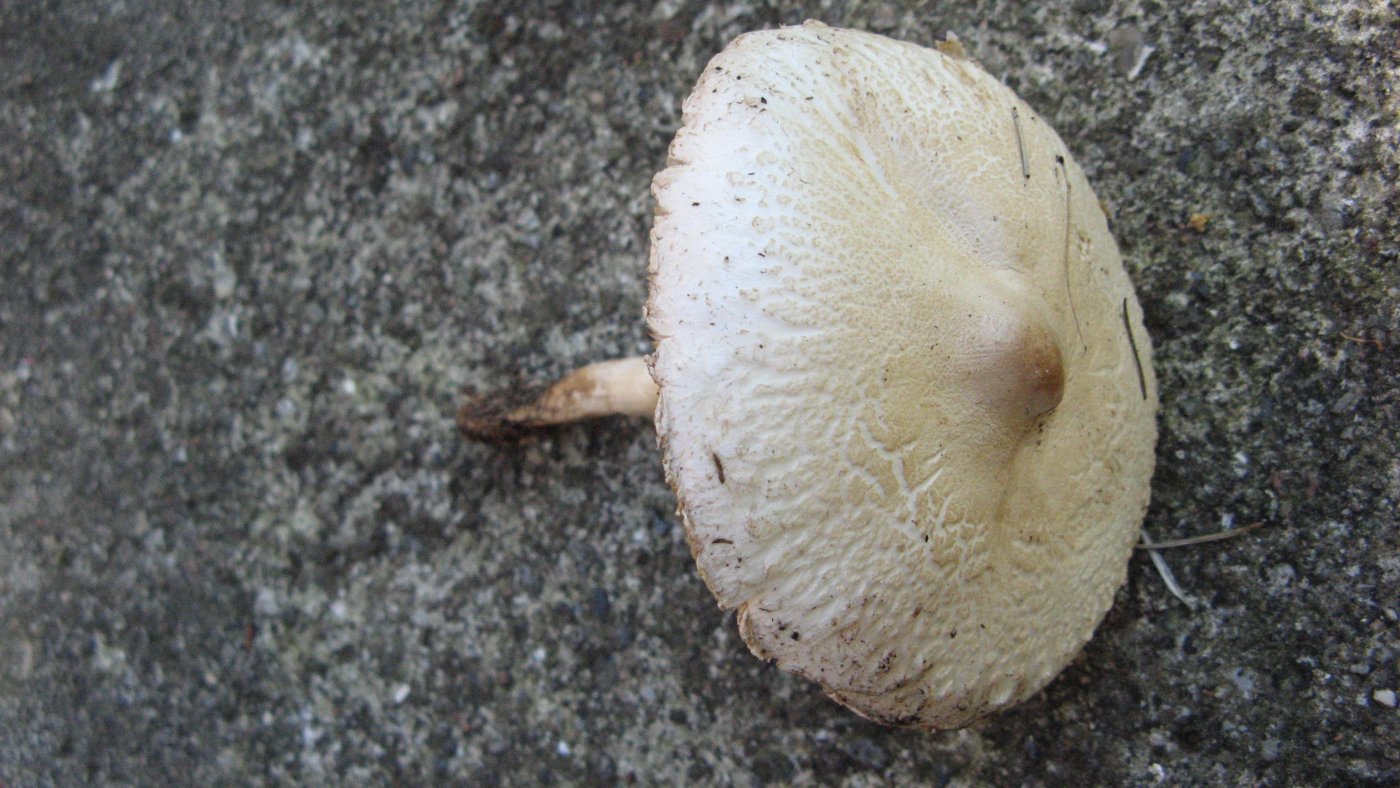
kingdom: Fungi
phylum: Basidiomycota
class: Agaricomycetes
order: Agaricales
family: Agaricaceae
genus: Macrolepiota
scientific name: Macrolepiota excoriata
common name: mark-kæmpeparasolhat
